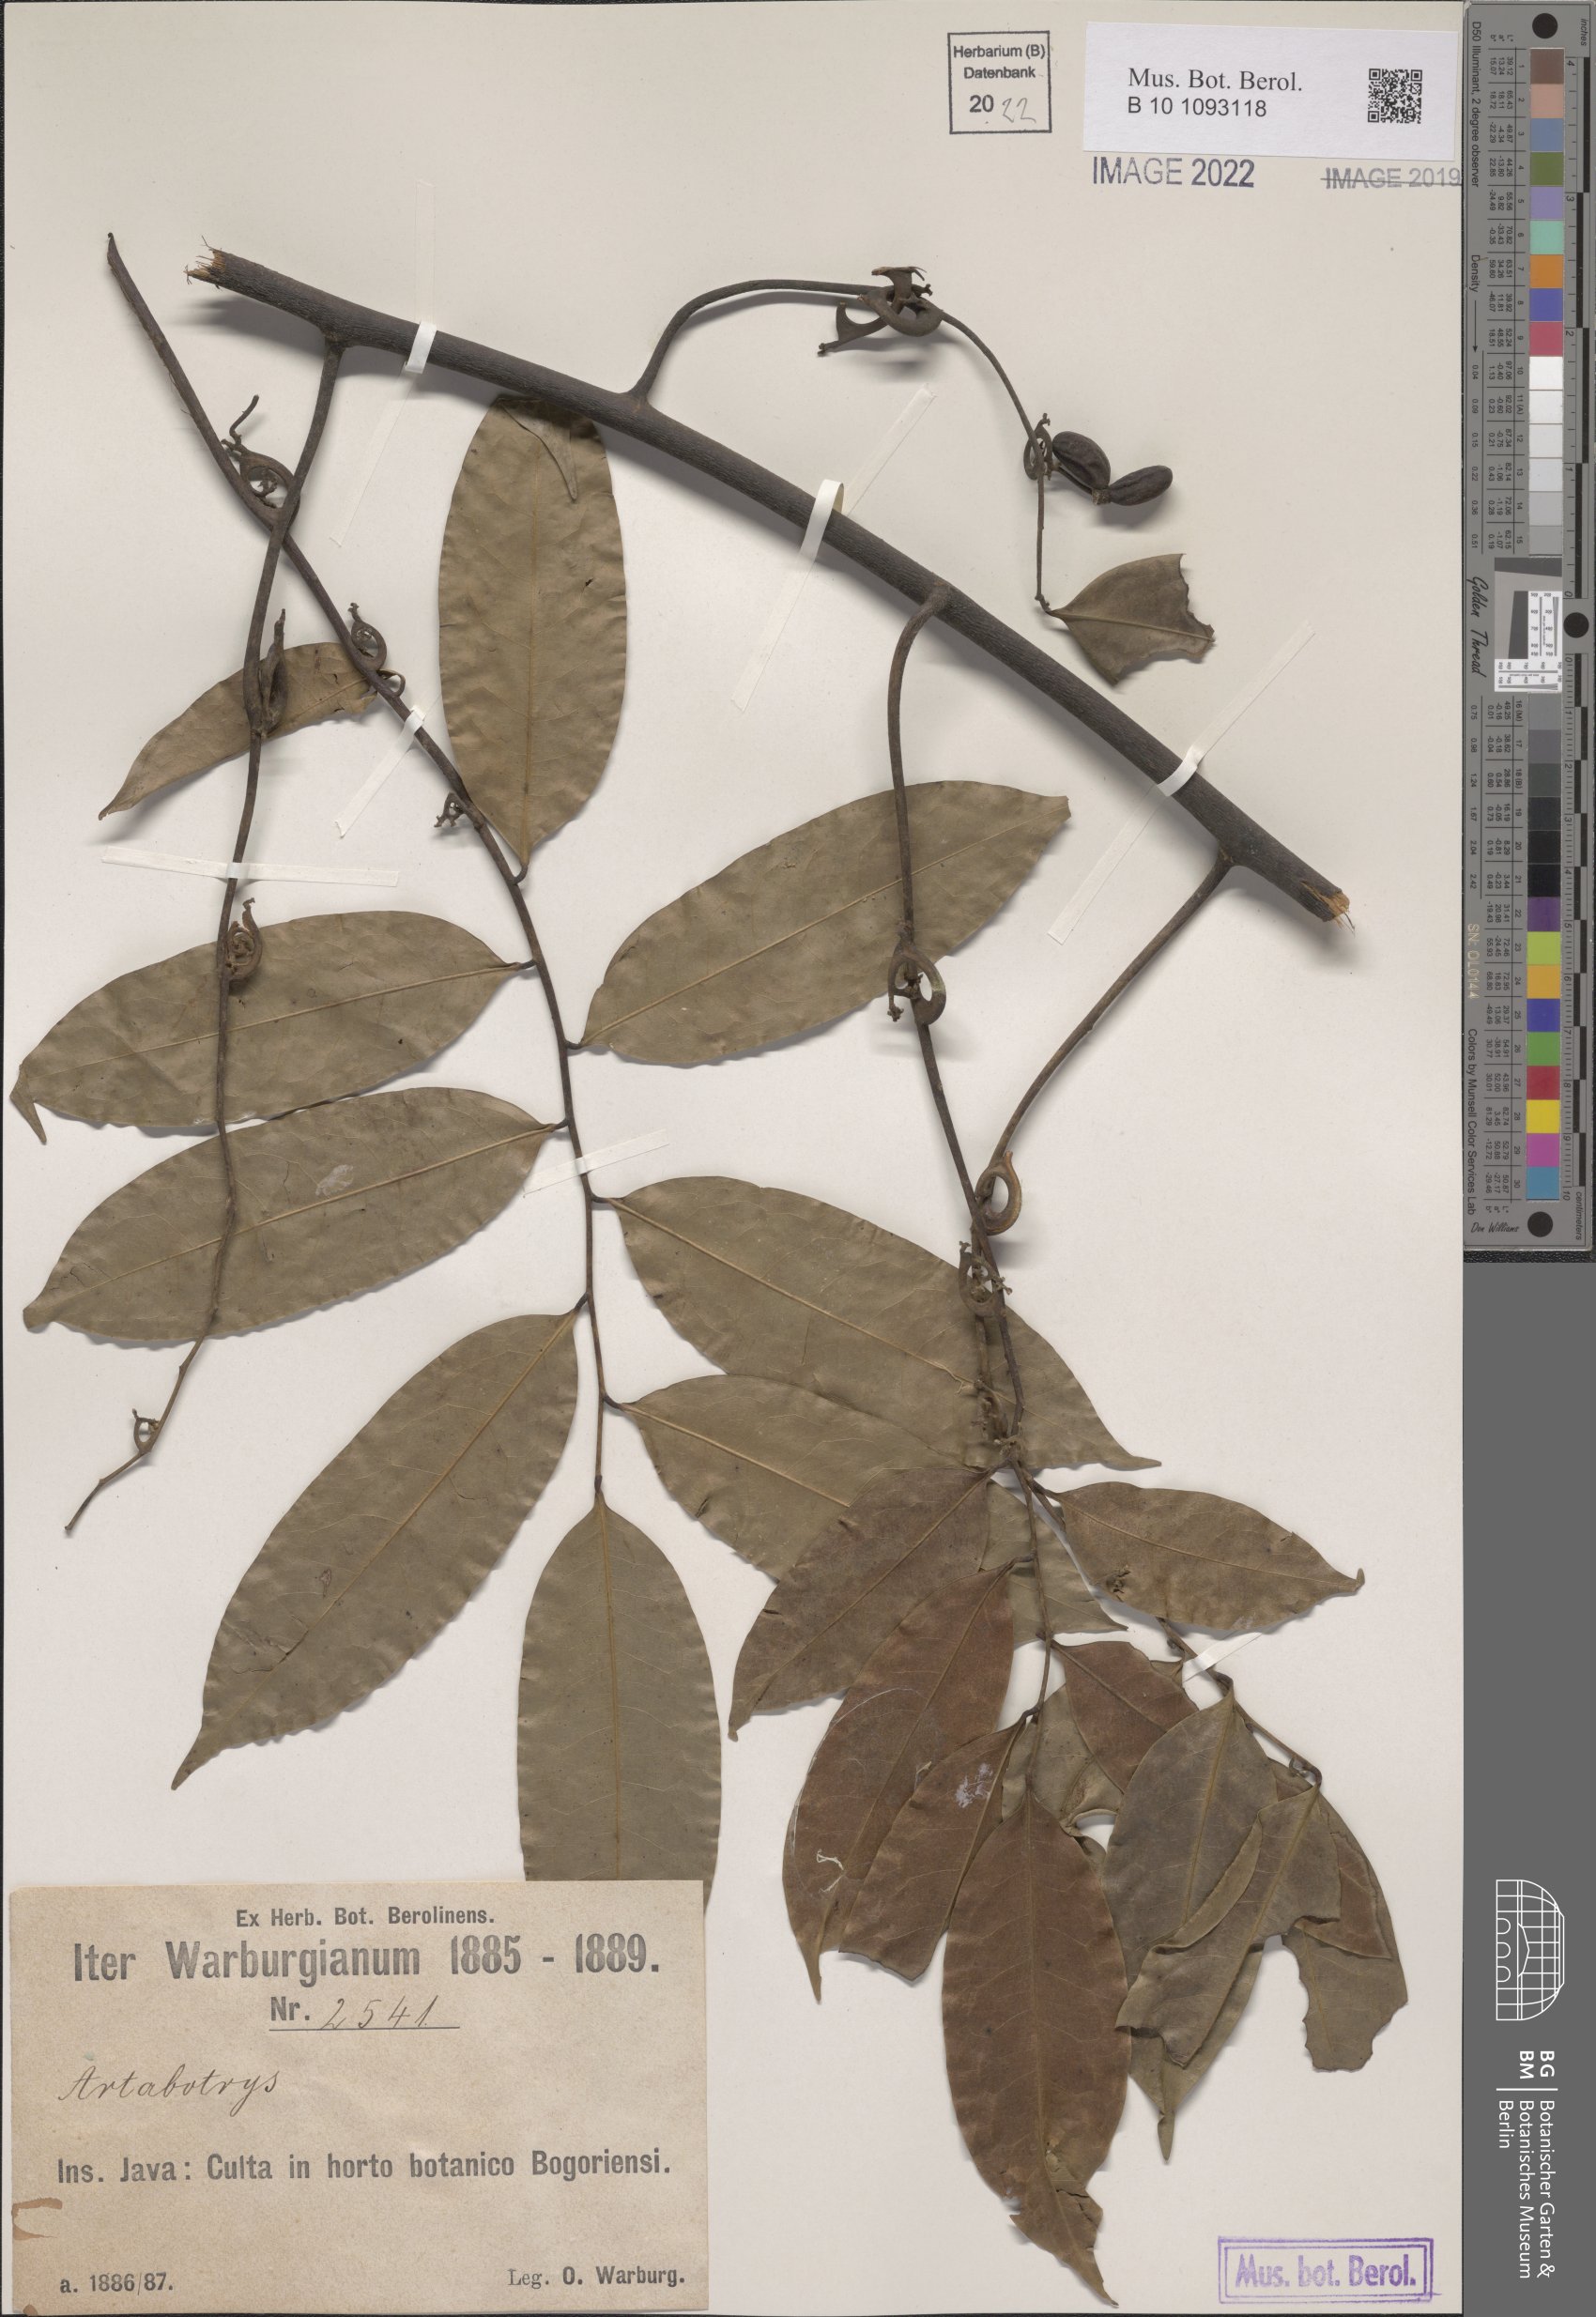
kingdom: Plantae
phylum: Tracheophyta
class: Magnoliopsida
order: Magnoliales
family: Annonaceae
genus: Artabotrys
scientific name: Artabotrys
